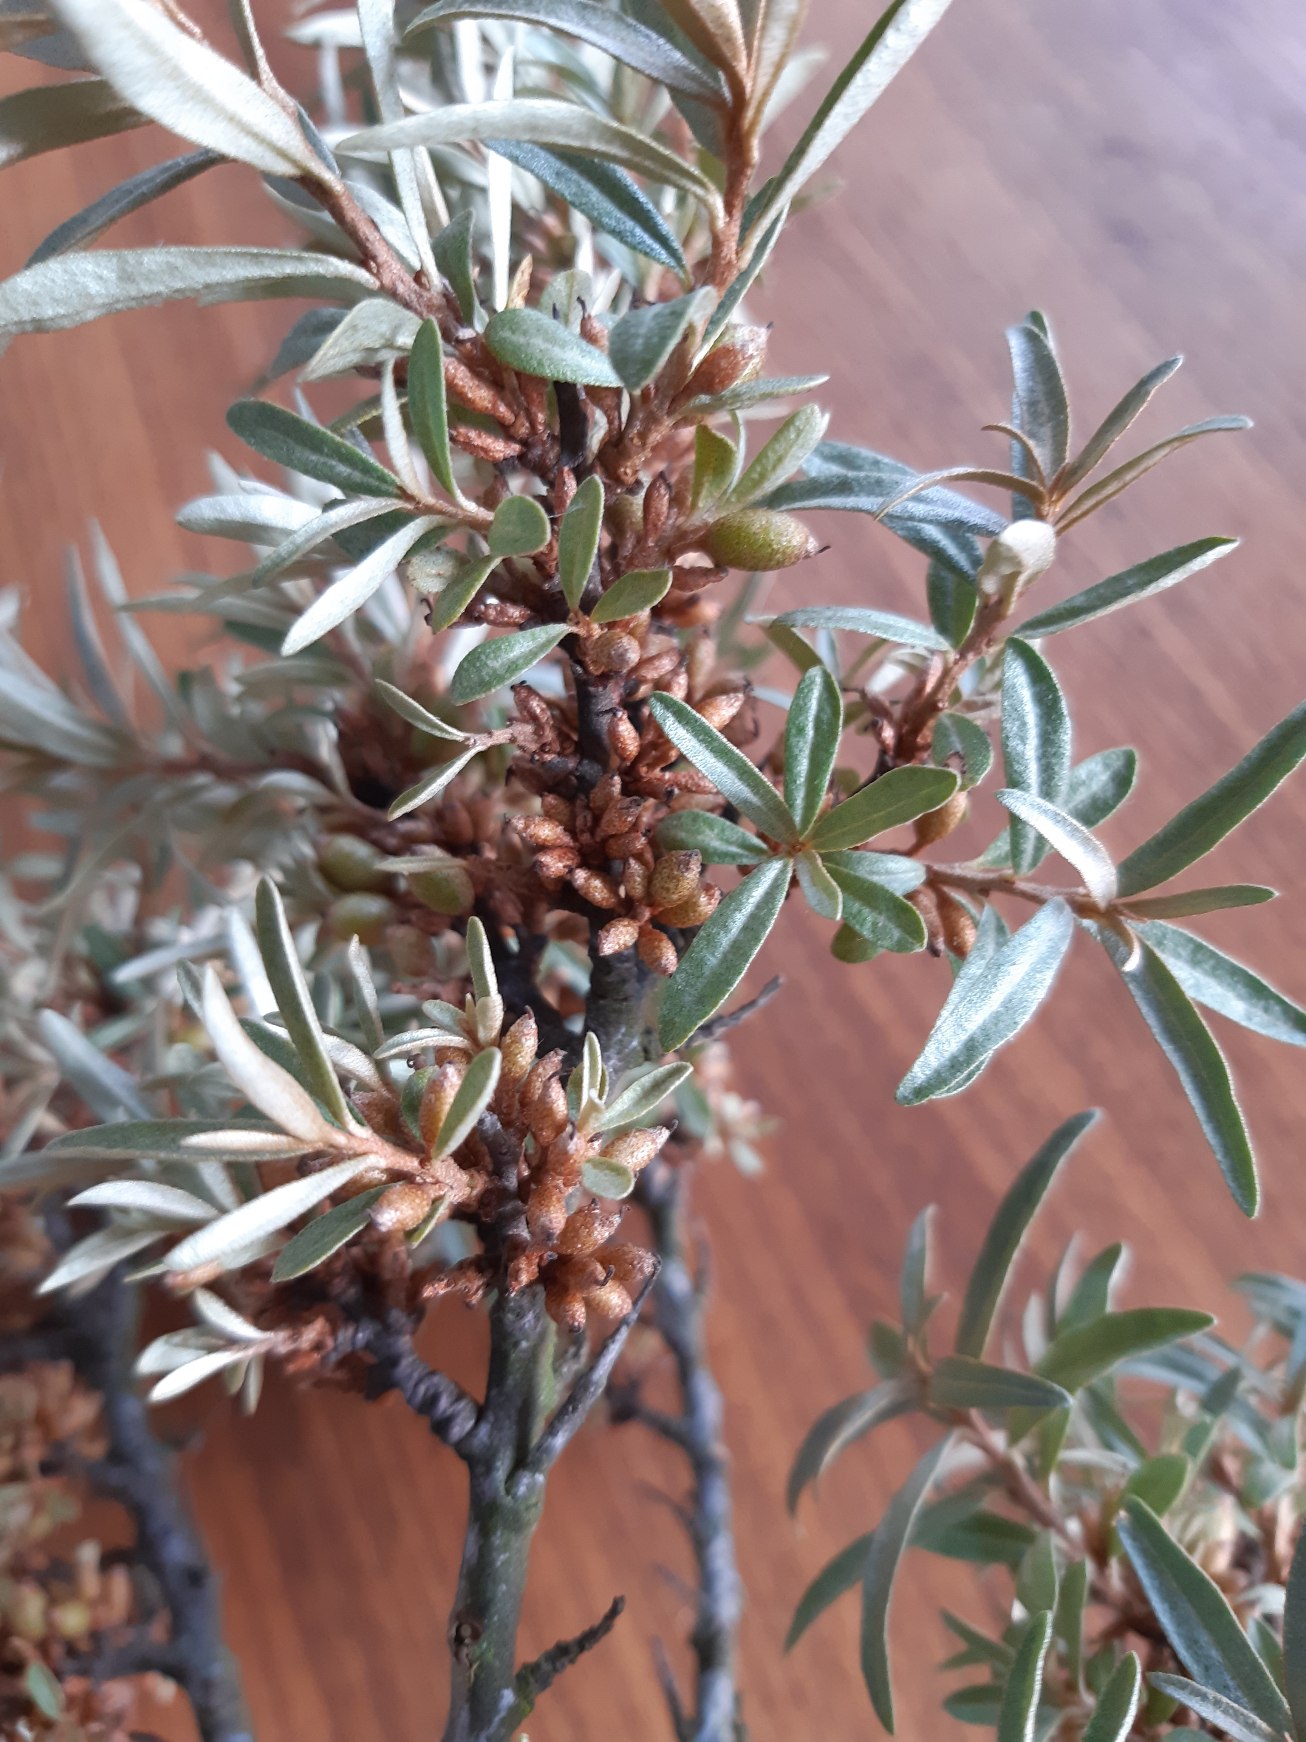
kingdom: Plantae
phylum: Tracheophyta
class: Magnoliopsida
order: Rosales
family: Elaeagnaceae
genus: Hippophae
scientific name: Hippophae rhamnoides
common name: Havtorn
